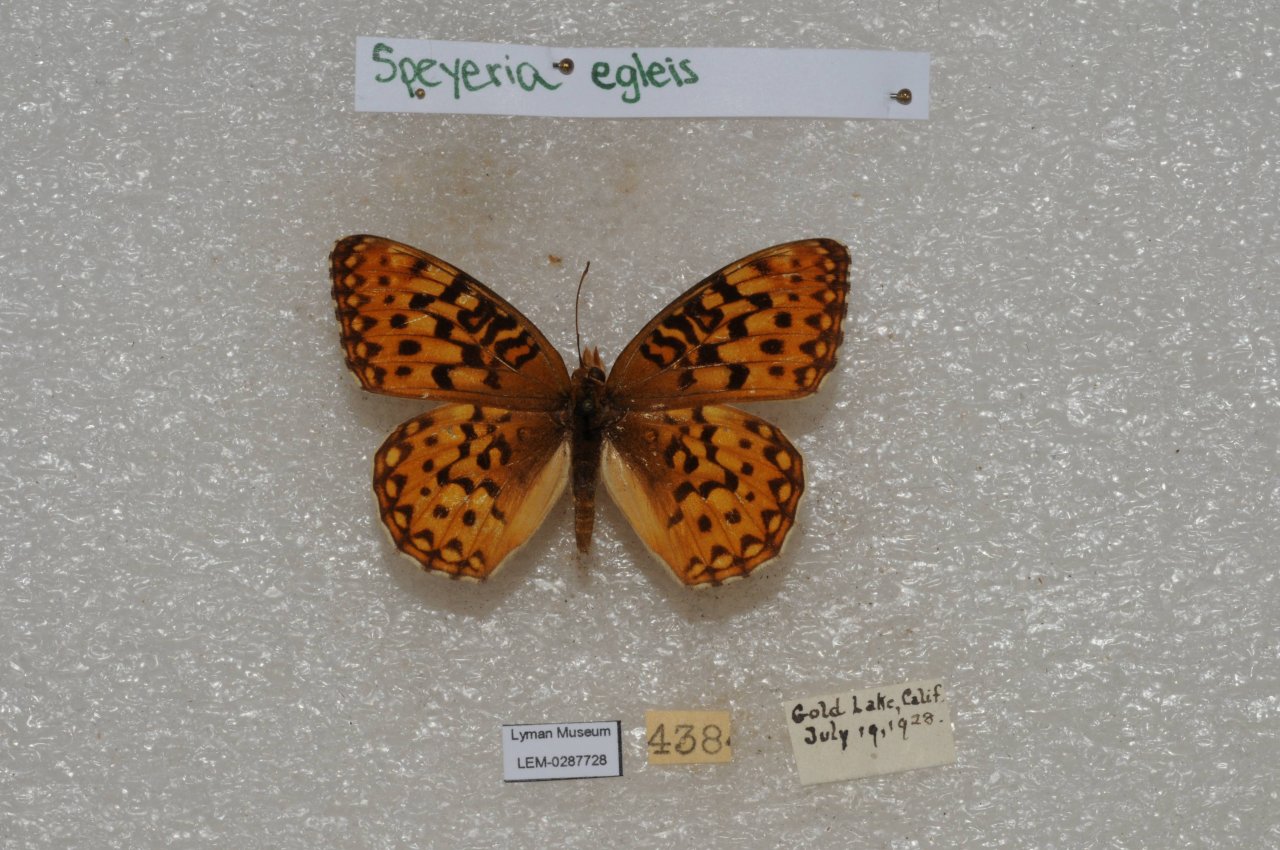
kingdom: Animalia
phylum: Arthropoda
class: Insecta
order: Lepidoptera
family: Nymphalidae
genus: Speyeria
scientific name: Speyeria egleis
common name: Great Basin Fritillary
